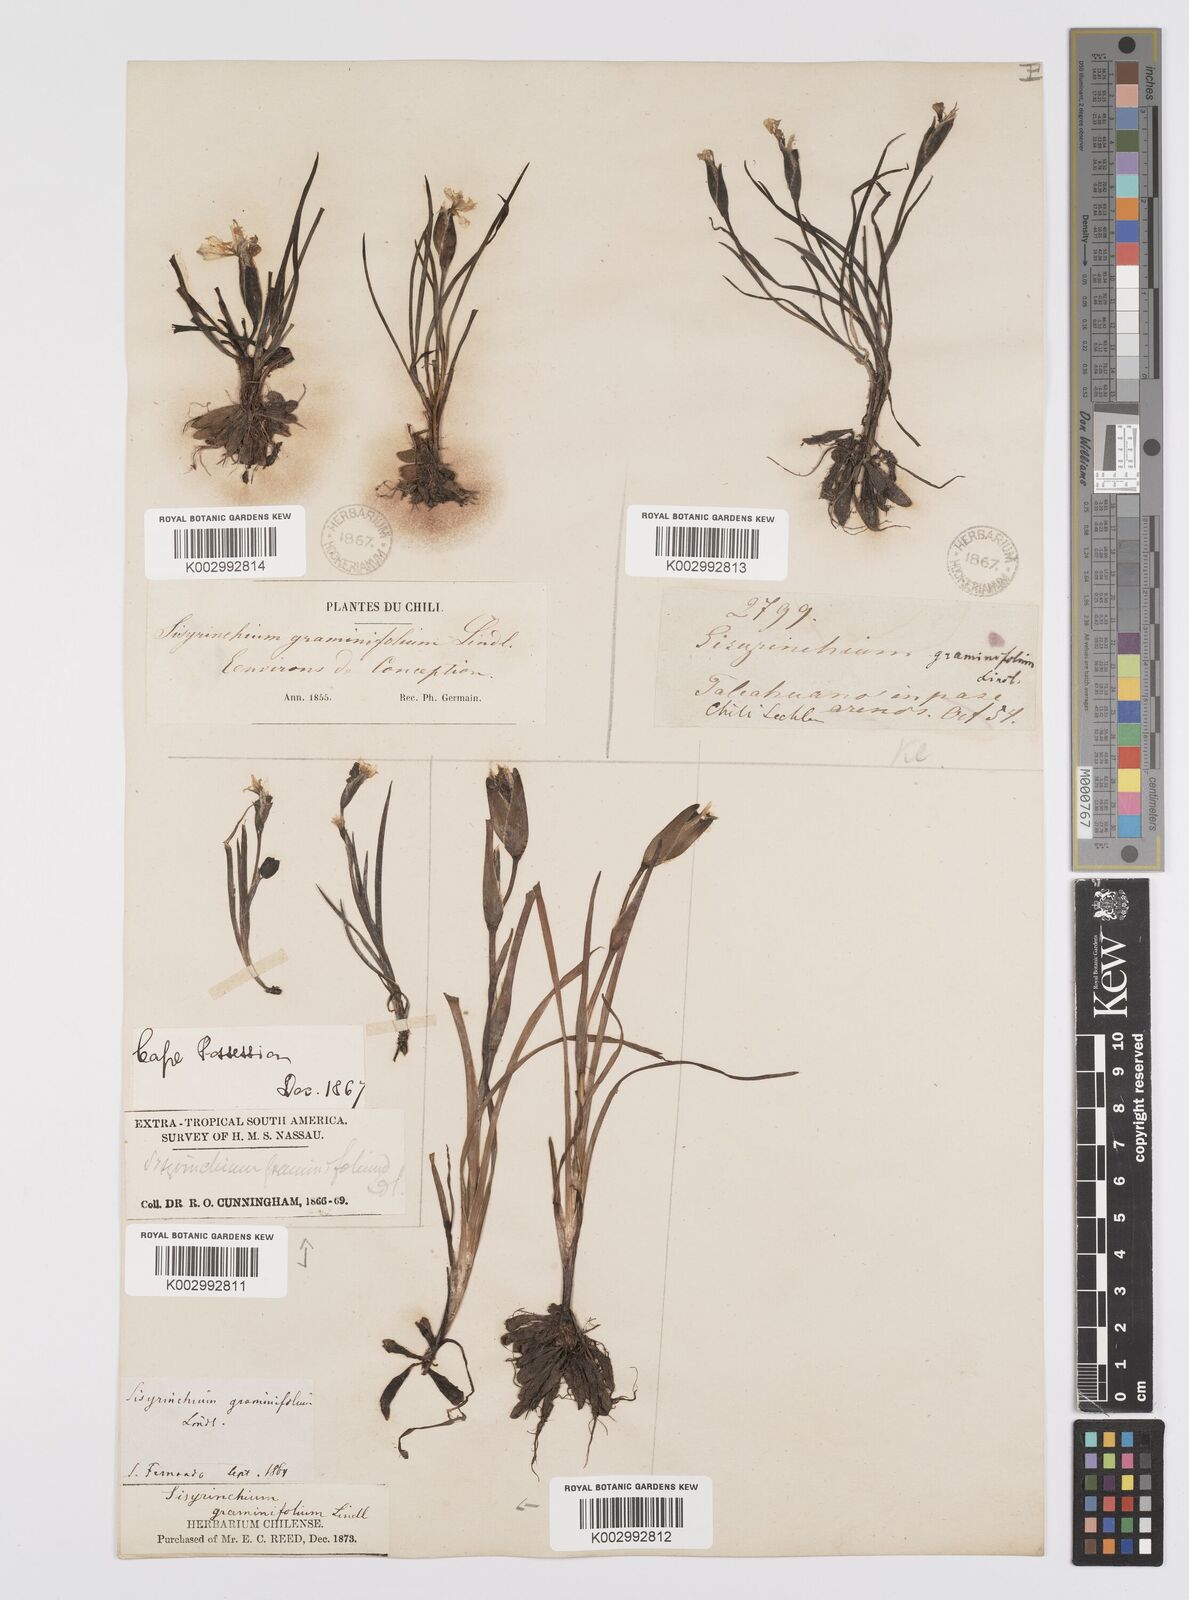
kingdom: Plantae
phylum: Tracheophyta
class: Liliopsida
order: Asparagales
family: Iridaceae
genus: Sisyrinchium
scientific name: Sisyrinchium graminifolium
